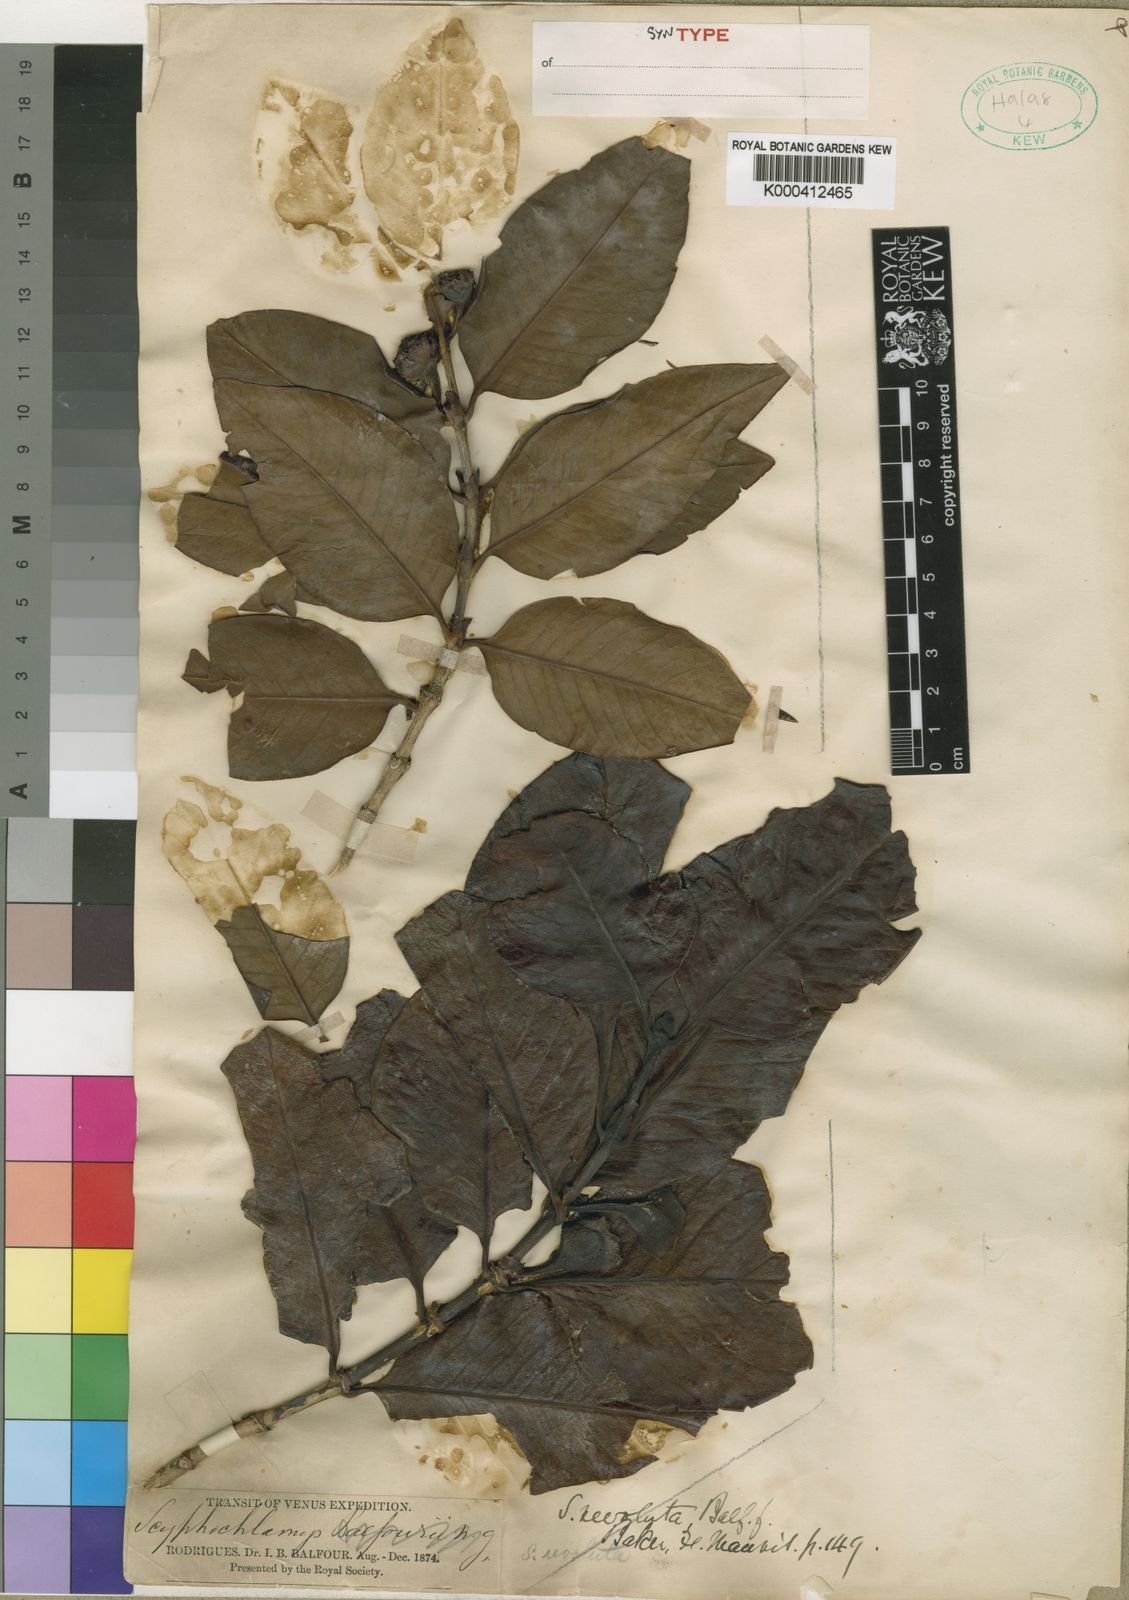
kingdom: Plantae
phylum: Tracheophyta
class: Magnoliopsida
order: Gentianales
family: Rubiaceae
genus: Pyrostria
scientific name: Pyrostria revoluta
